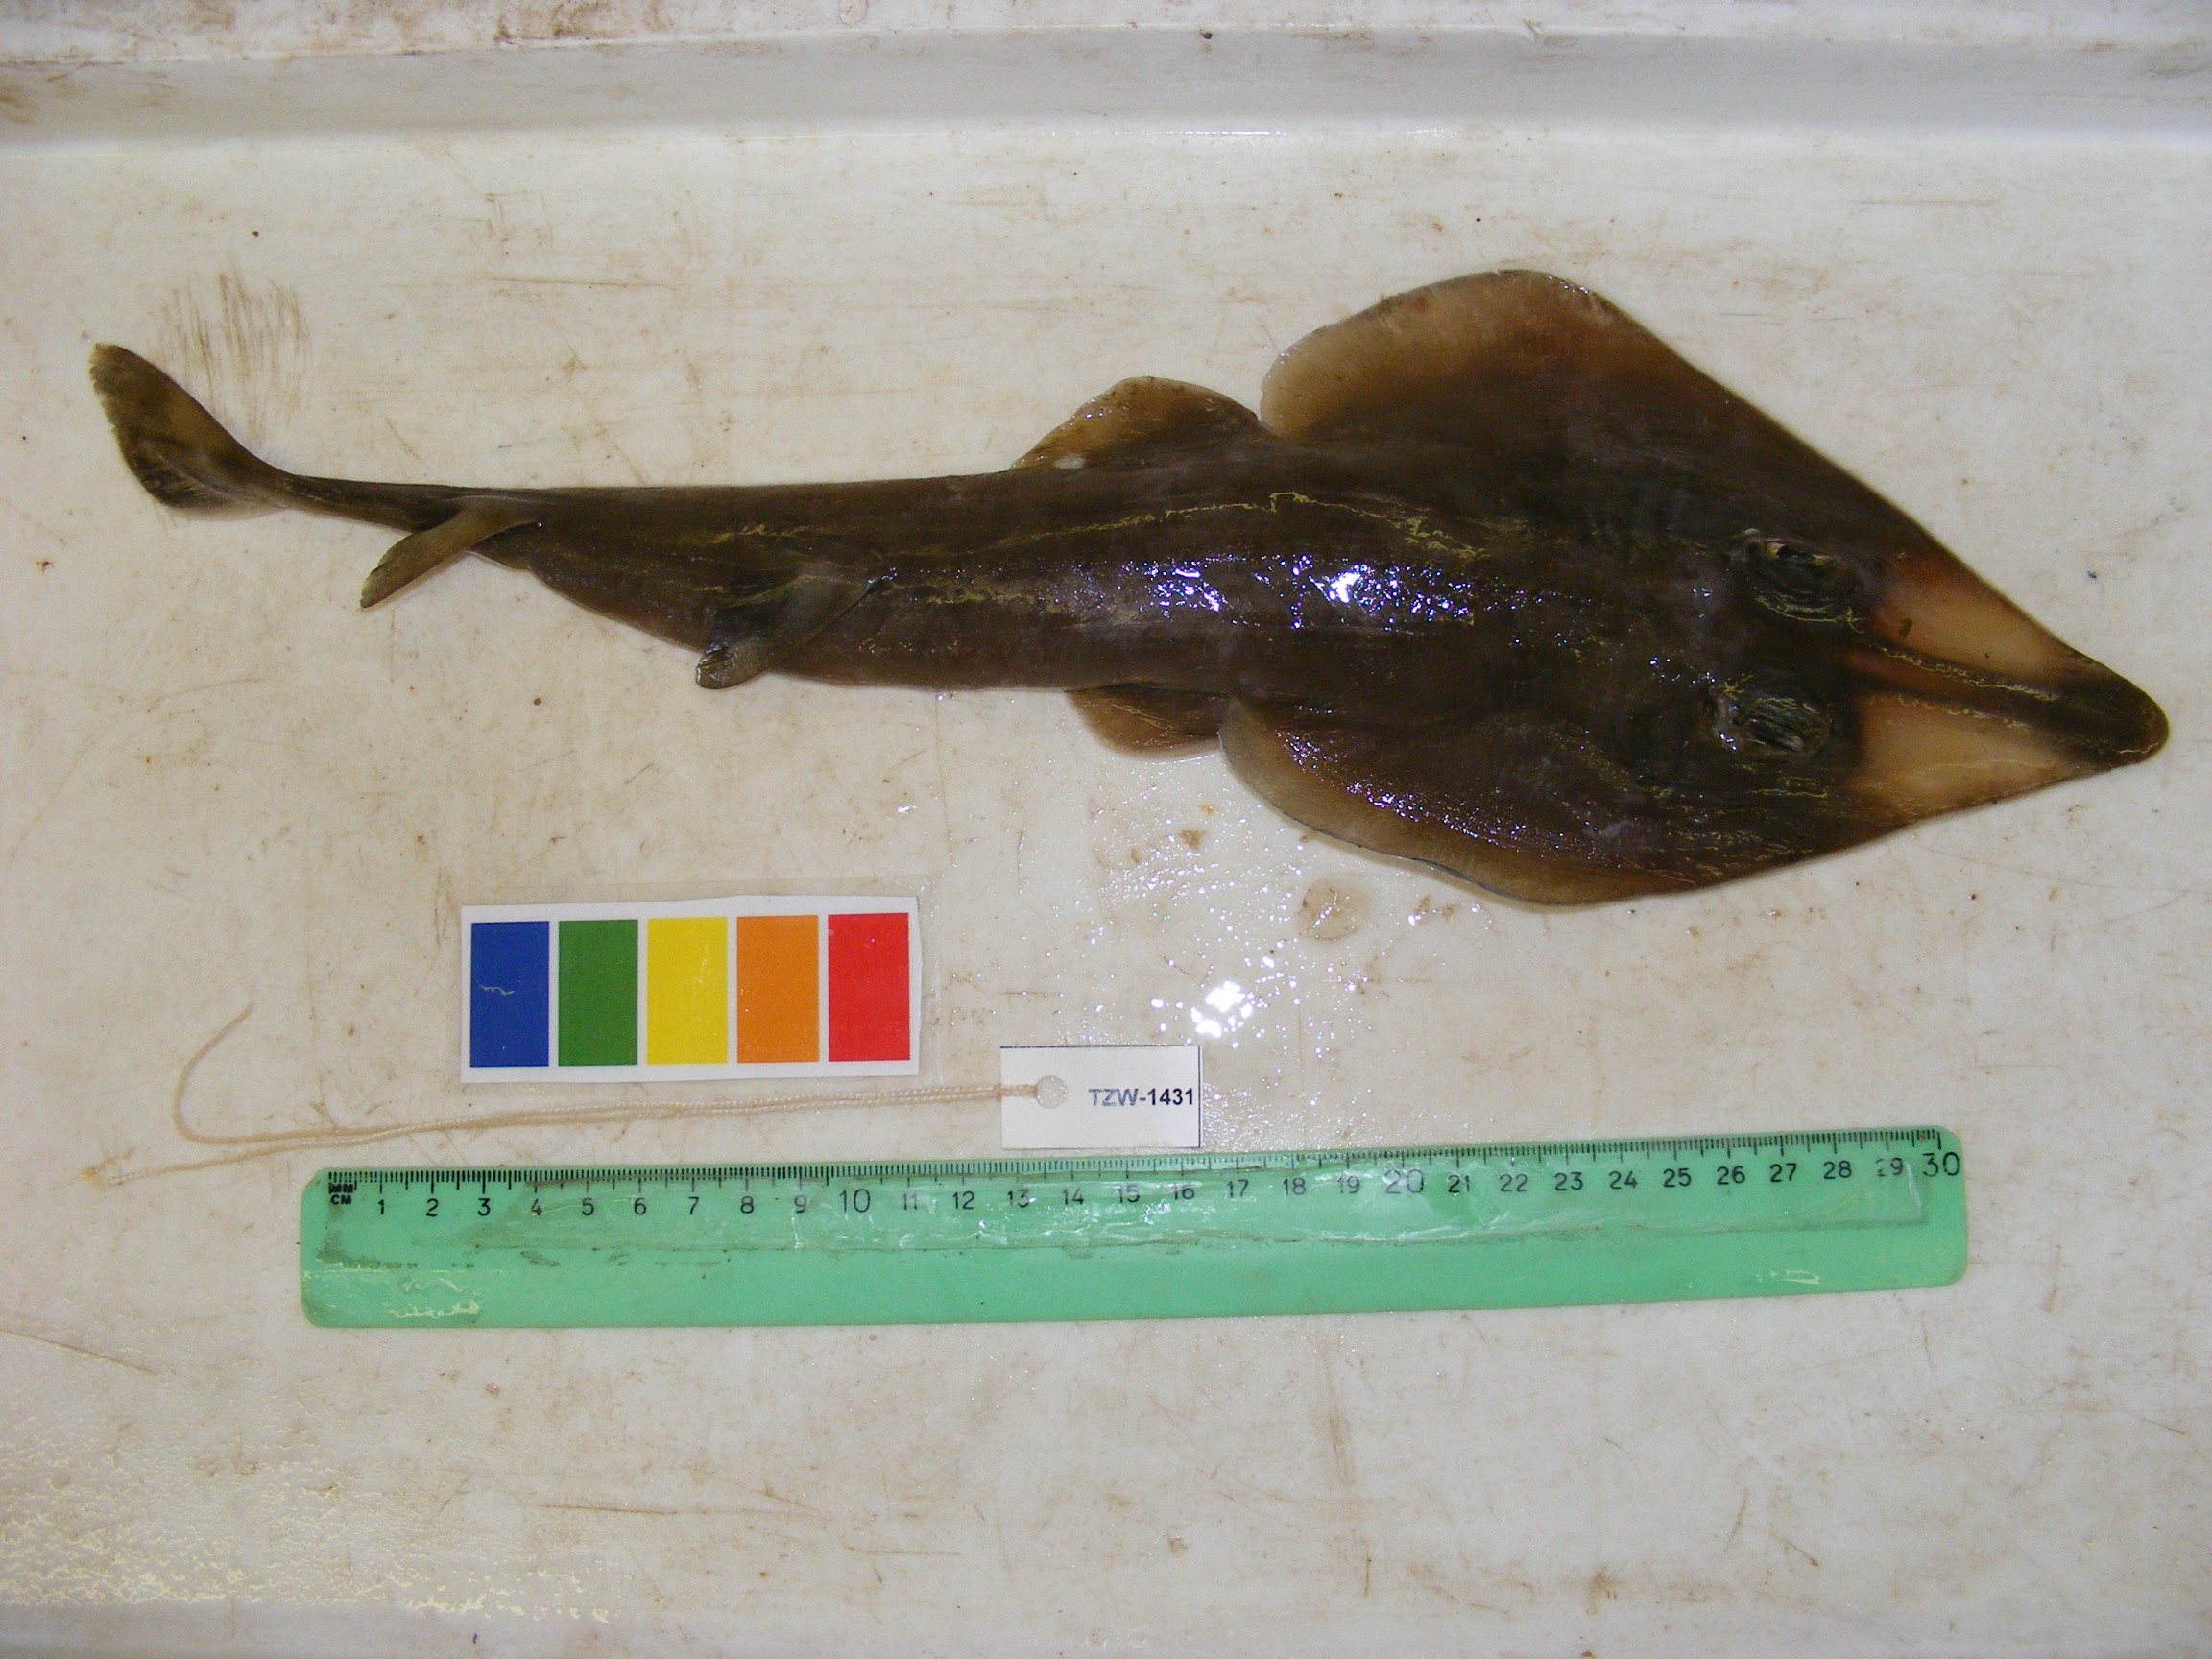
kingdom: Animalia
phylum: Chordata
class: Elasmobranchii
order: Rhinopristiformes
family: Rhinobatidae
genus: Rhinobatos
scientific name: Rhinobatos austini
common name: Austin’s guitarfish
